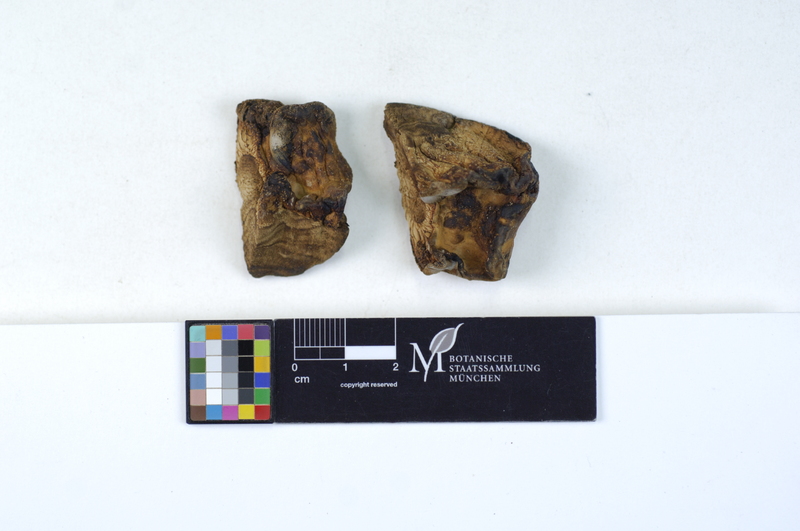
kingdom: Plantae
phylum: Tracheophyta
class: Magnoliopsida
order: Fagales
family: Fagaceae
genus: Quercus
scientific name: Quercus
